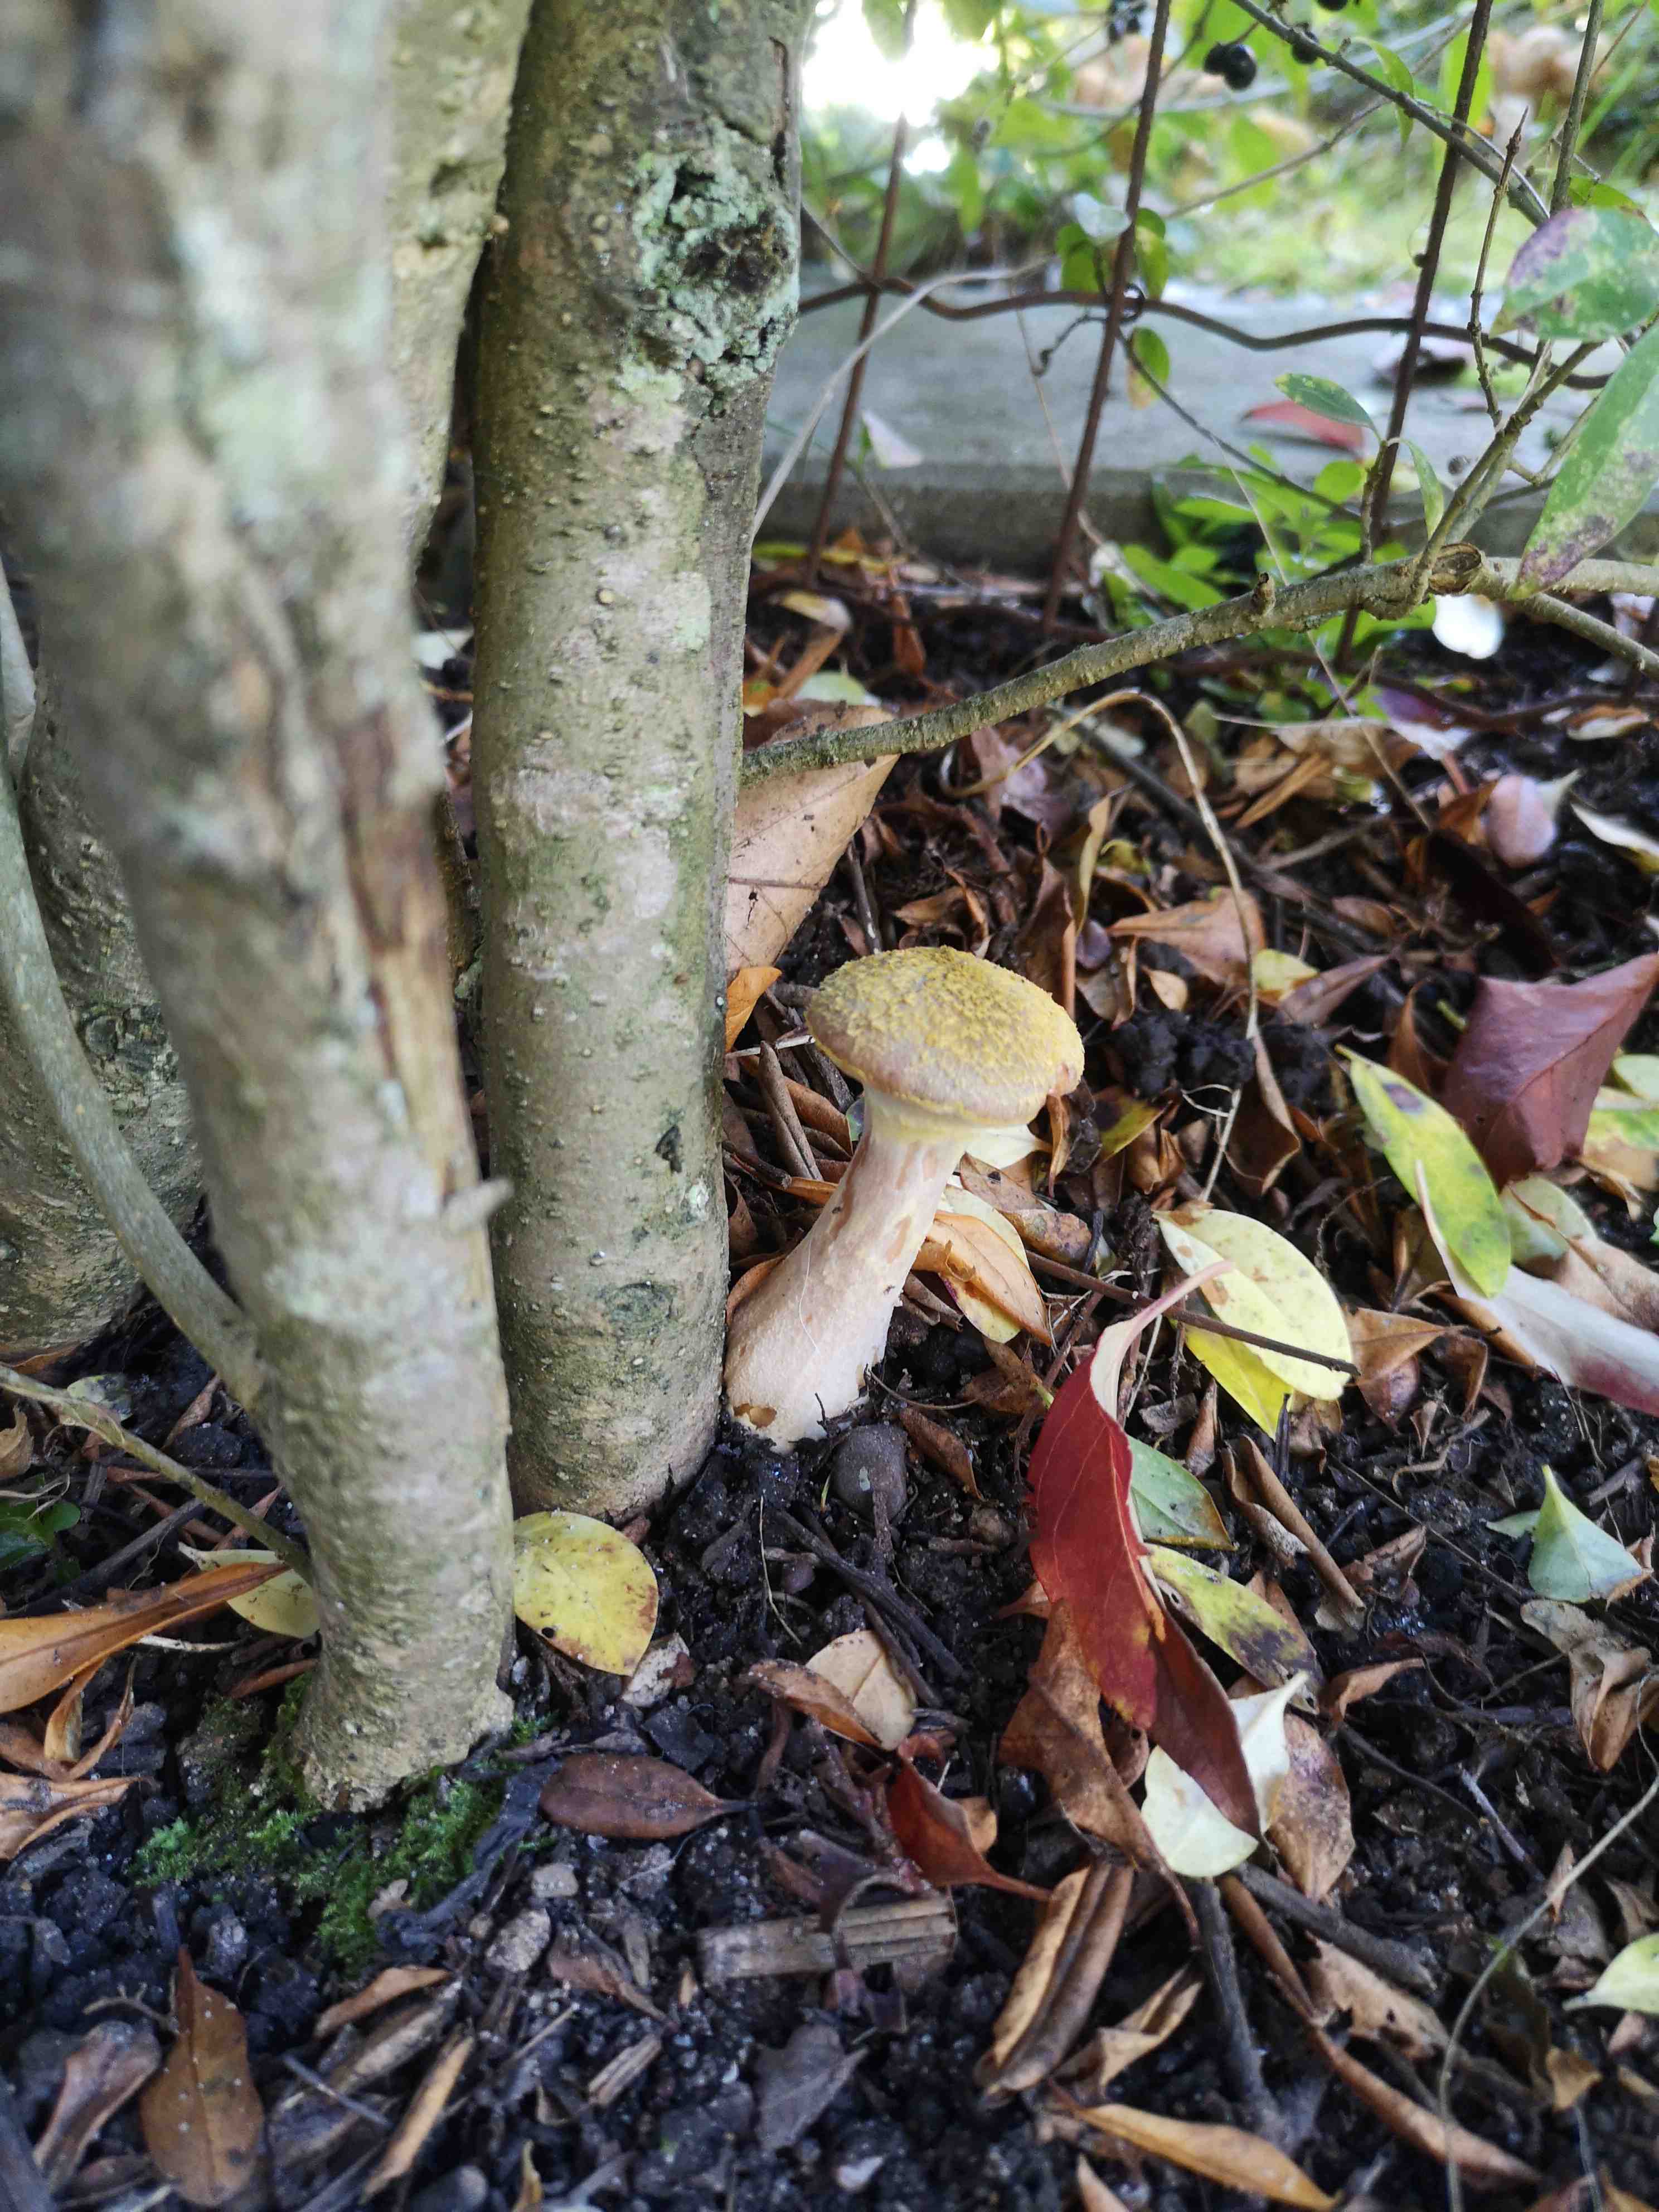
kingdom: Fungi
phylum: Basidiomycota
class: Agaricomycetes
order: Agaricales
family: Physalacriaceae
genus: Armillaria
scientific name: Armillaria lutea
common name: køllestokket honningsvamp
